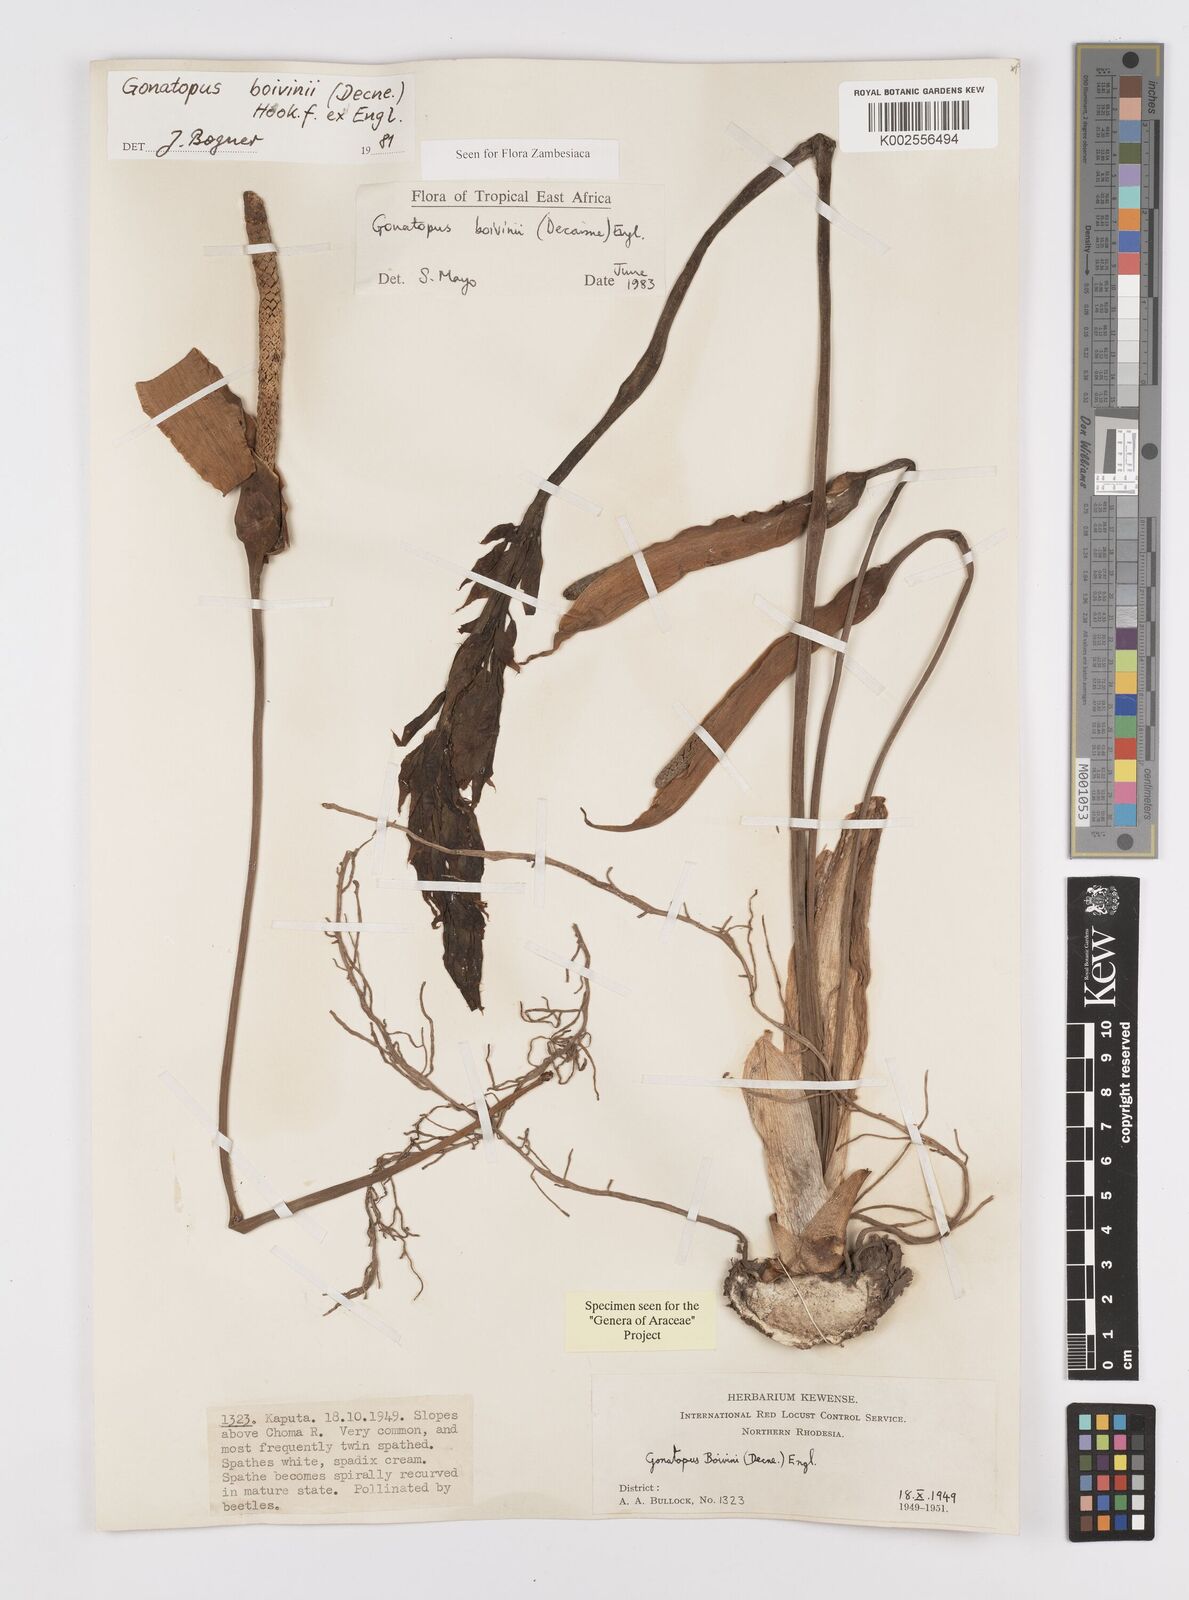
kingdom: Plantae
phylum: Tracheophyta
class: Liliopsida
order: Alismatales
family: Araceae
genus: Gonatopus
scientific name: Gonatopus boivinii
